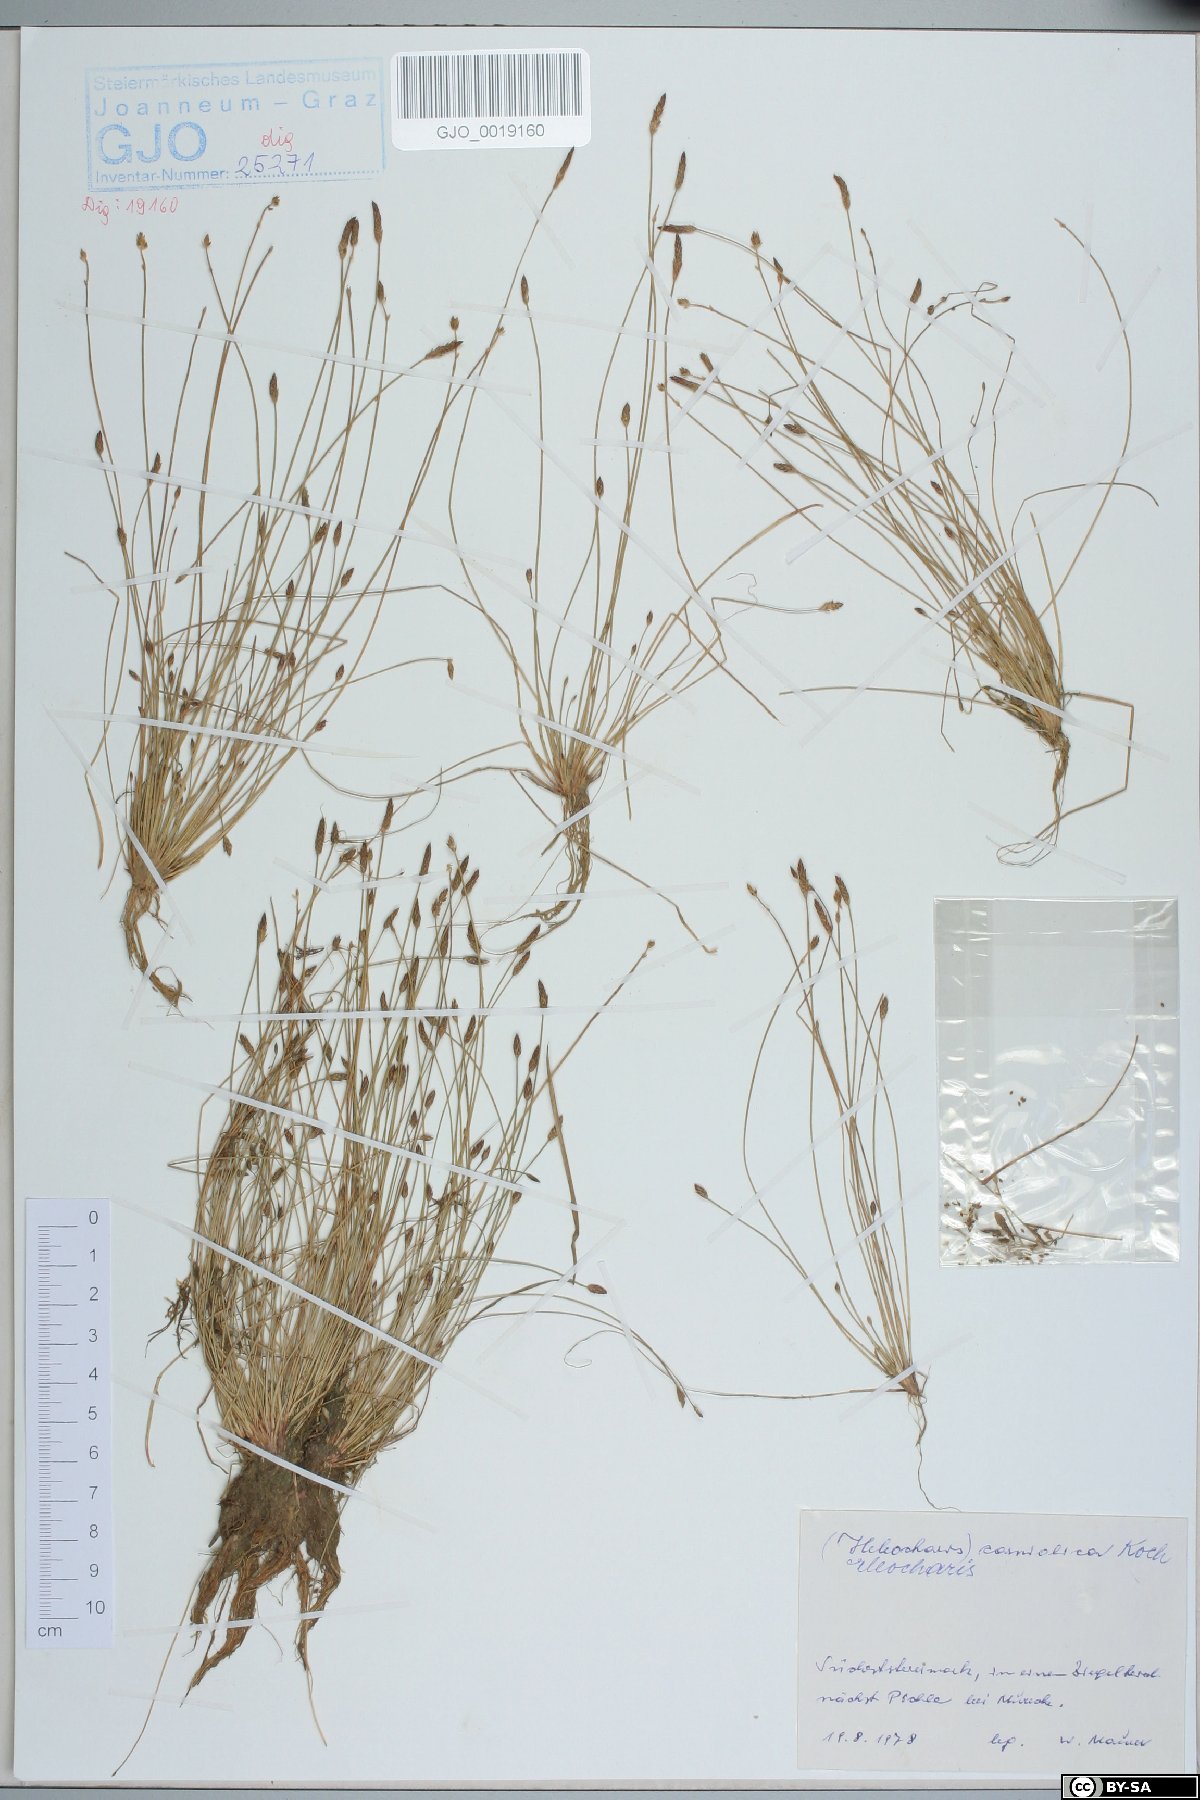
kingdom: Plantae
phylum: Tracheophyta
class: Liliopsida
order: Poales
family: Cyperaceae
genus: Eleocharis
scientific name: Eleocharis carniolica
